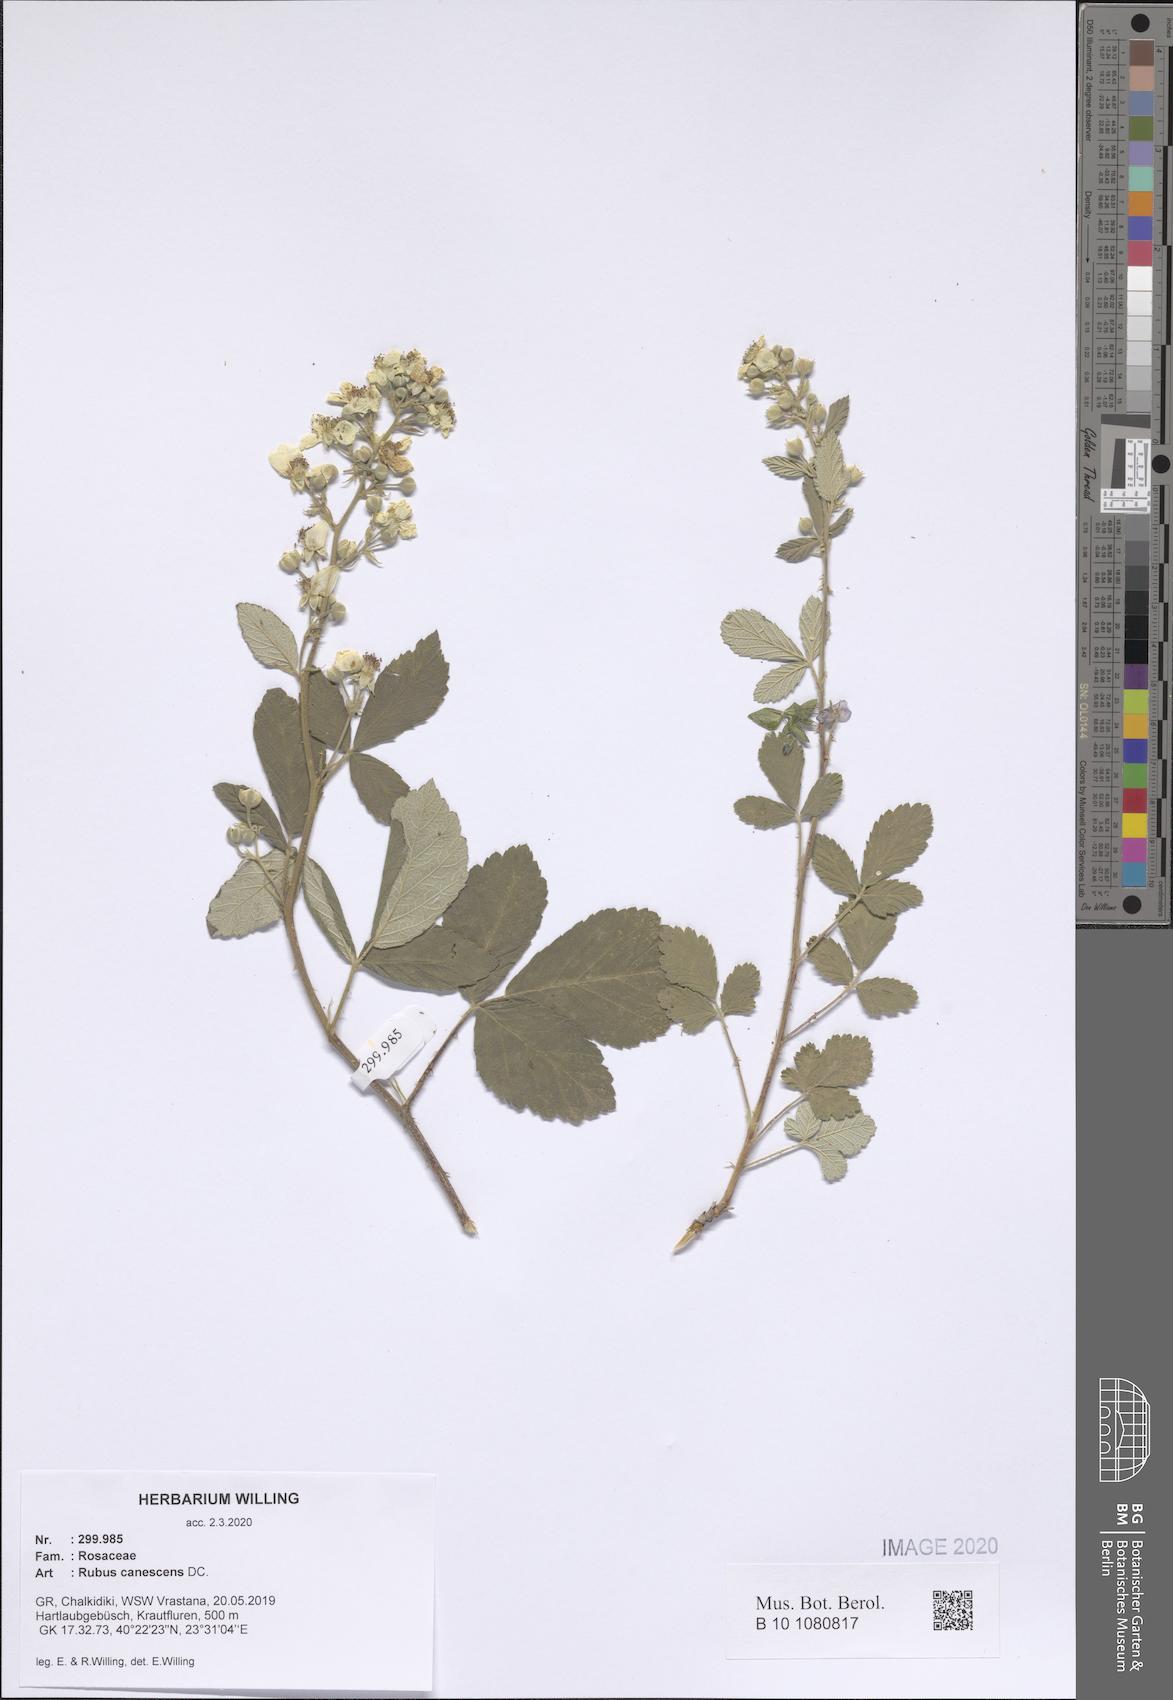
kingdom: Plantae
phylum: Tracheophyta
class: Magnoliopsida
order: Rosales
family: Rosaceae
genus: Rubus
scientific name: Rubus canescens
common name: Wooly blackberry
